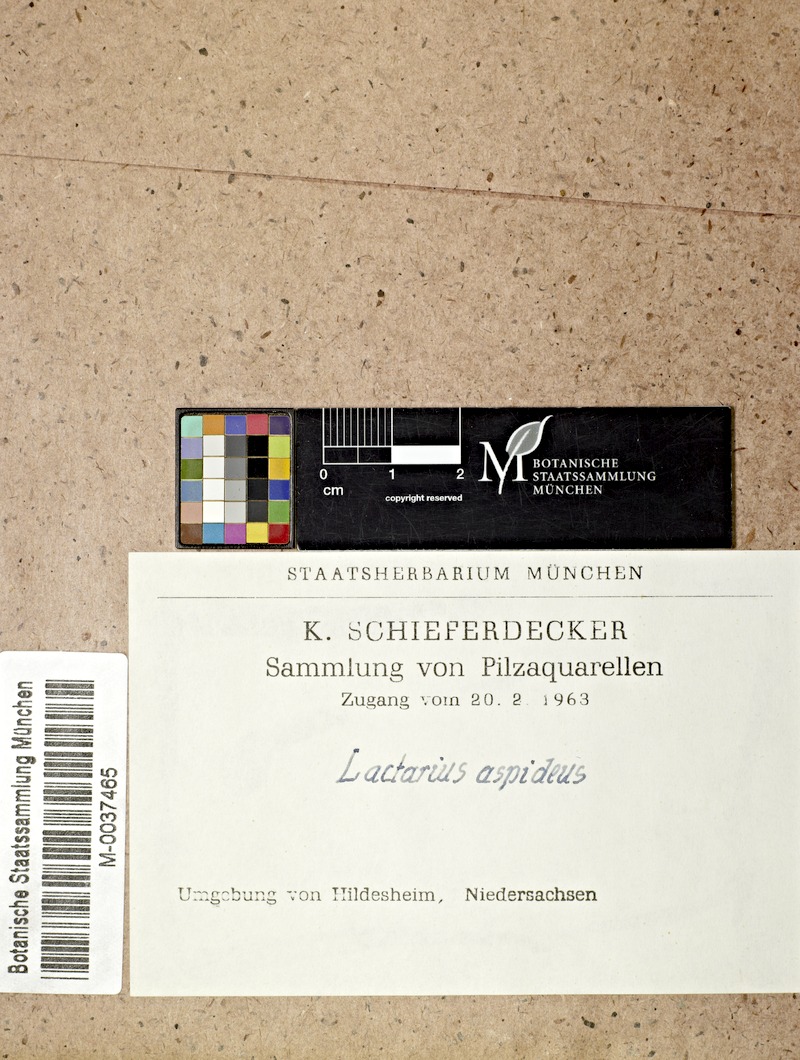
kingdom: Fungi
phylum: Basidiomycota
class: Agaricomycetes
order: Russulales
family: Russulaceae
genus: Lactarius
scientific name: Lactarius aspideus
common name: Willow milkcap
